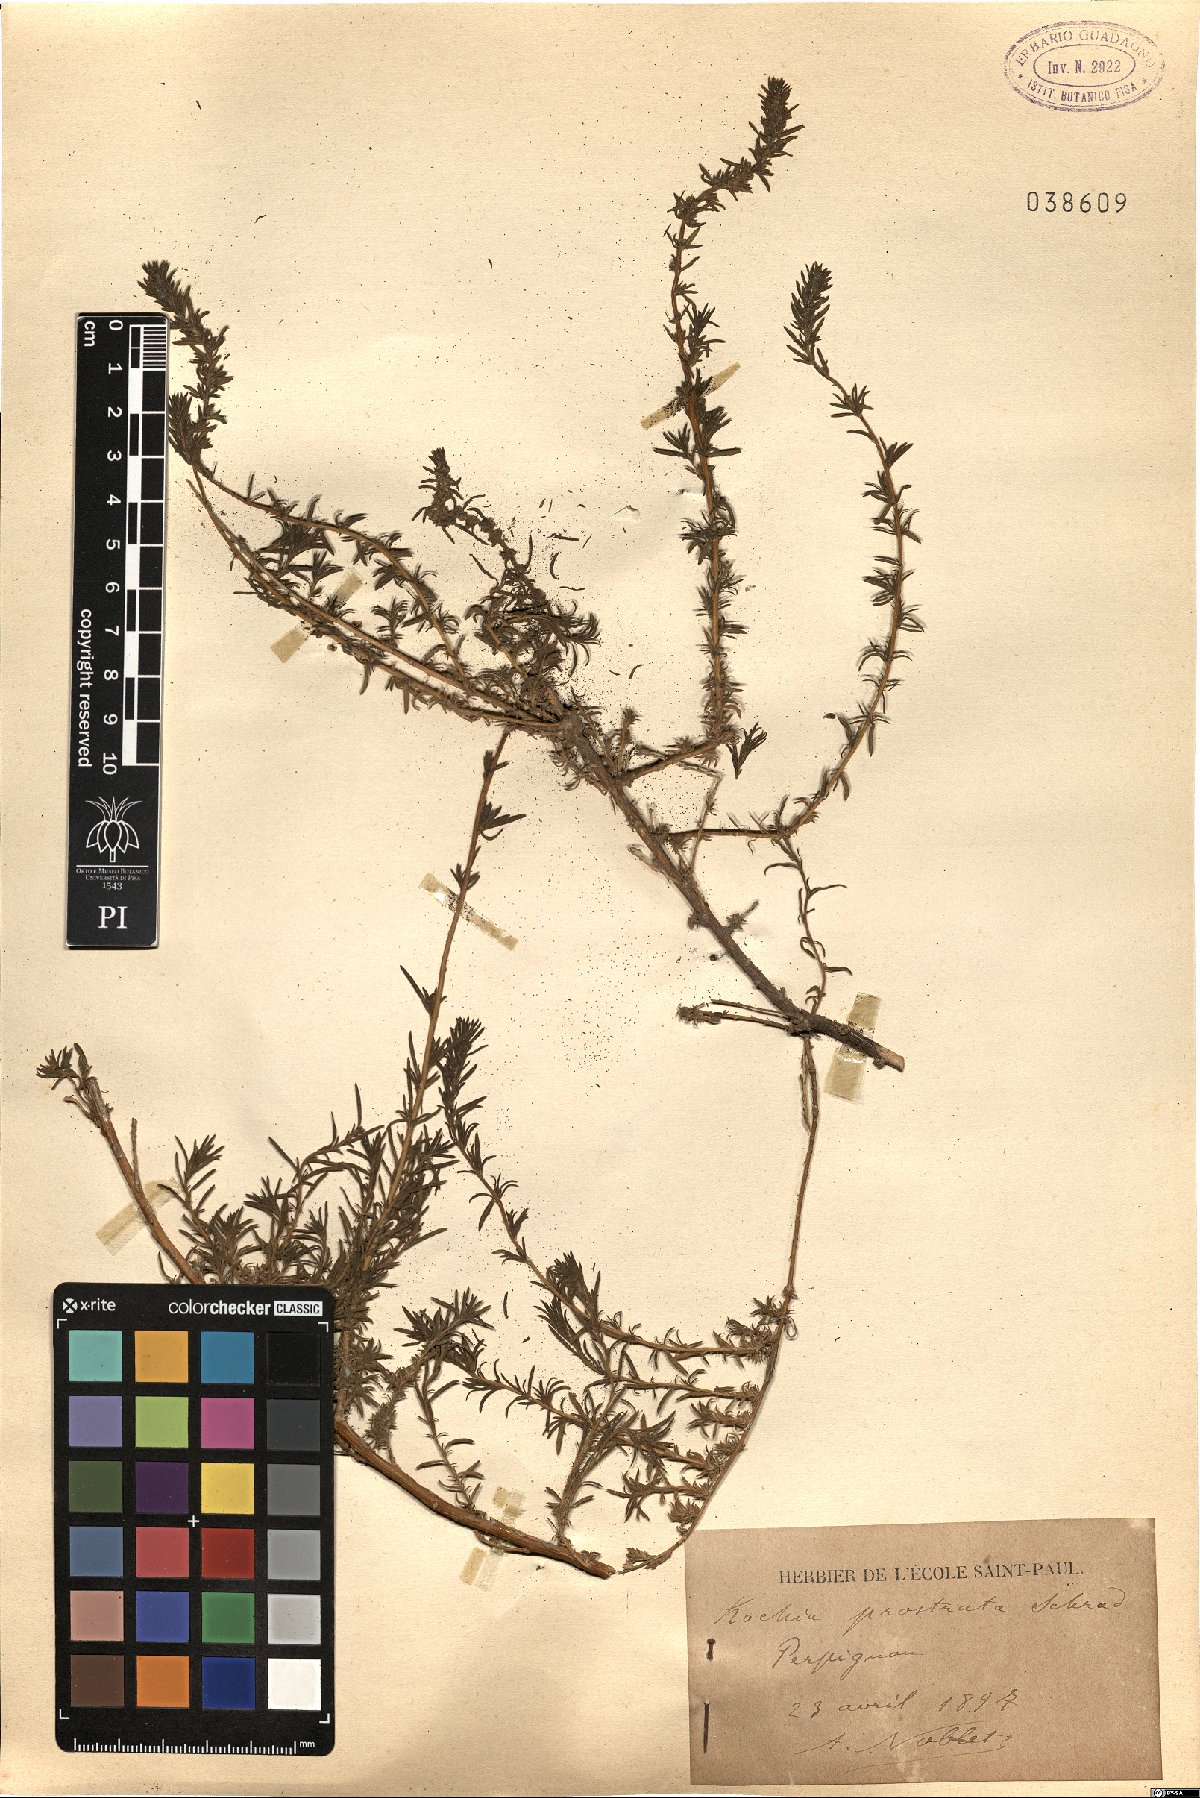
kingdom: Plantae
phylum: Tracheophyta
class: Magnoliopsida
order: Caryophyllales
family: Amaranthaceae
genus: Bassia
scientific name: Bassia prostrata
